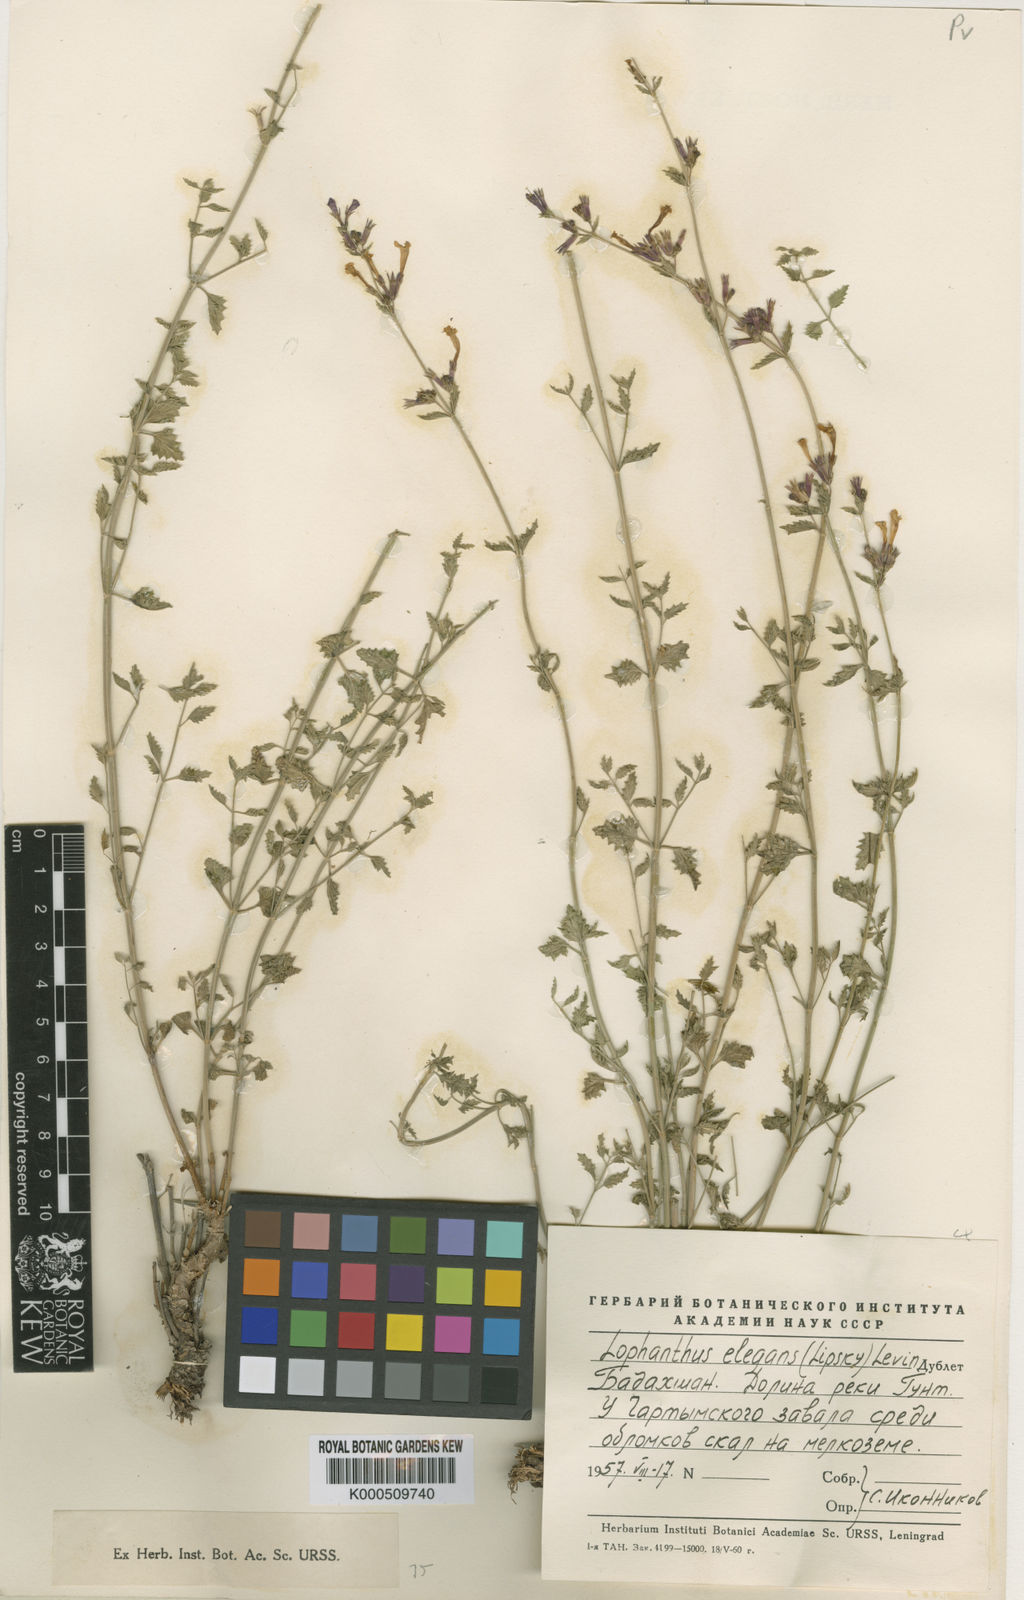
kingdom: Plantae
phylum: Tracheophyta
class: Magnoliopsida
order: Lamiales
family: Lamiaceae
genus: Nepeta
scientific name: Nepeta elegans
